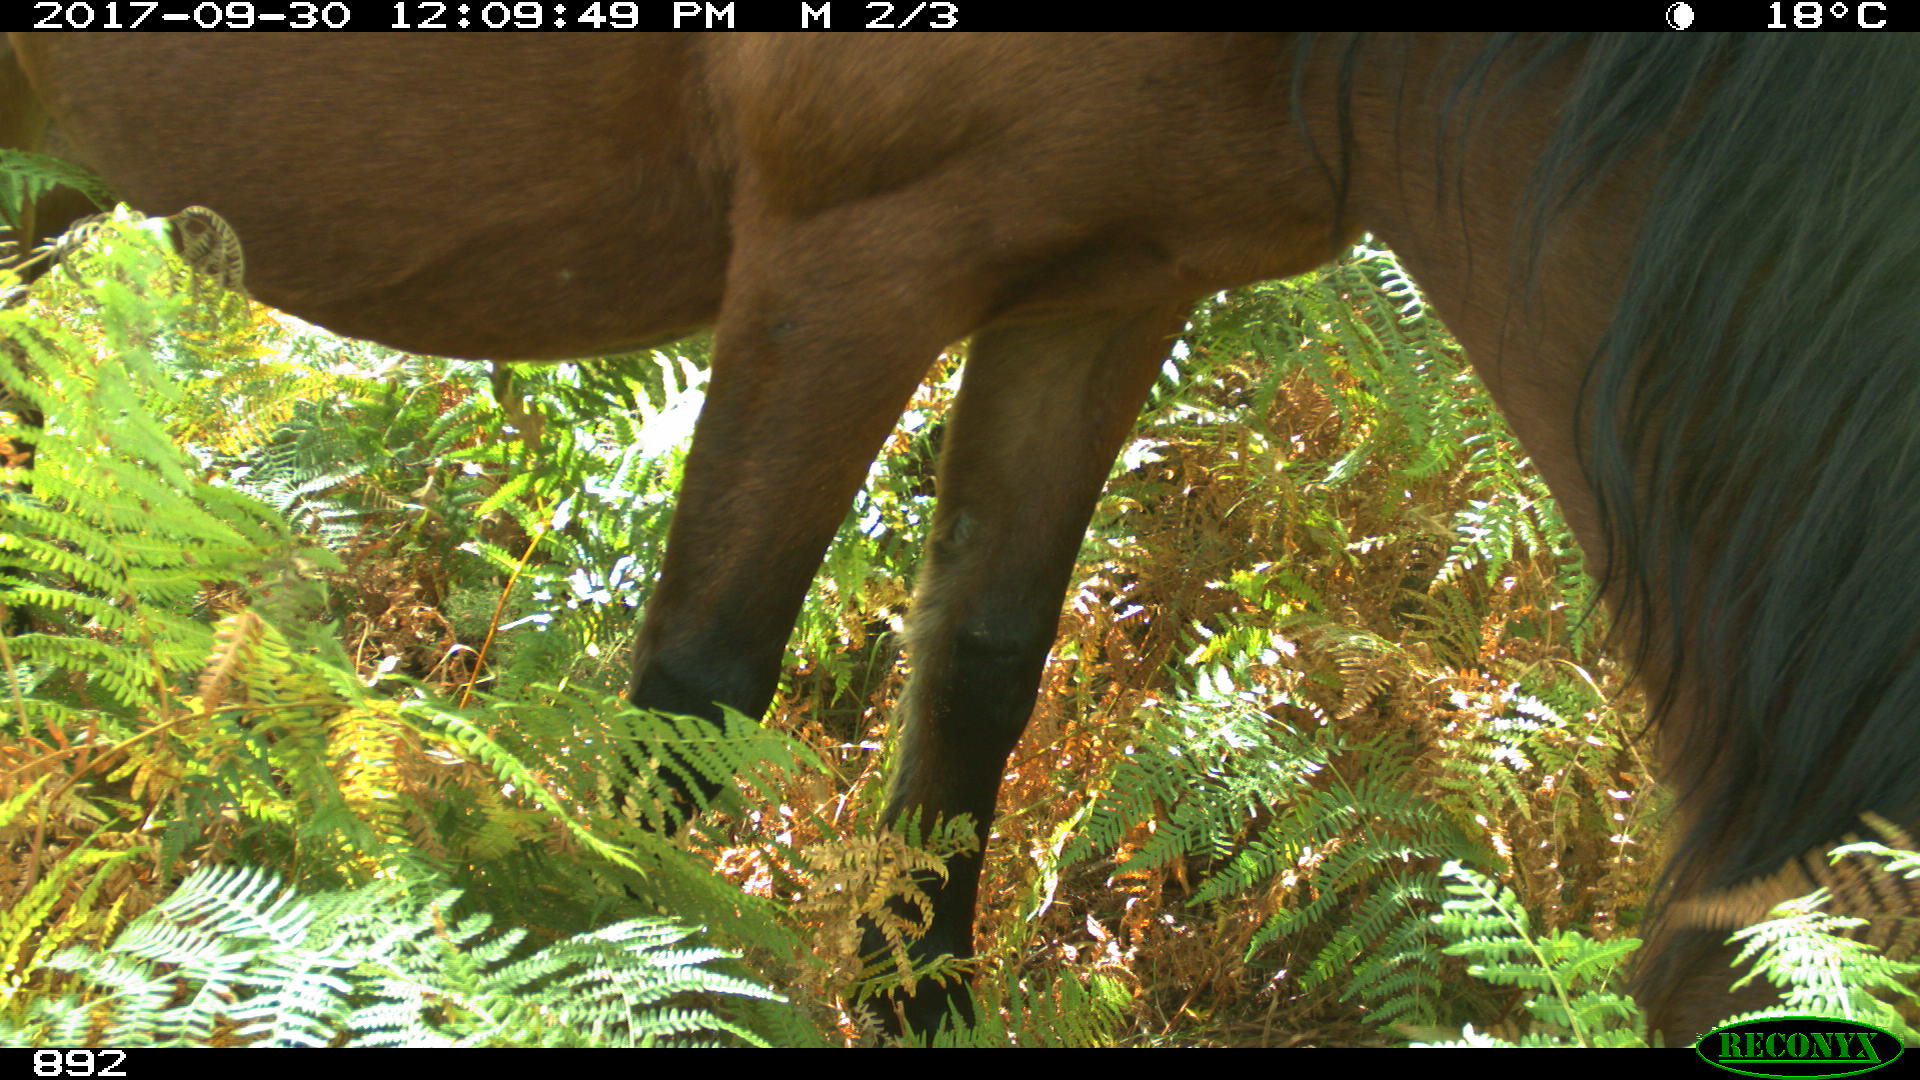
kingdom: Animalia
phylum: Chordata
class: Mammalia
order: Perissodactyla
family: Equidae
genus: Equus
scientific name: Equus caballus
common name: Horse
